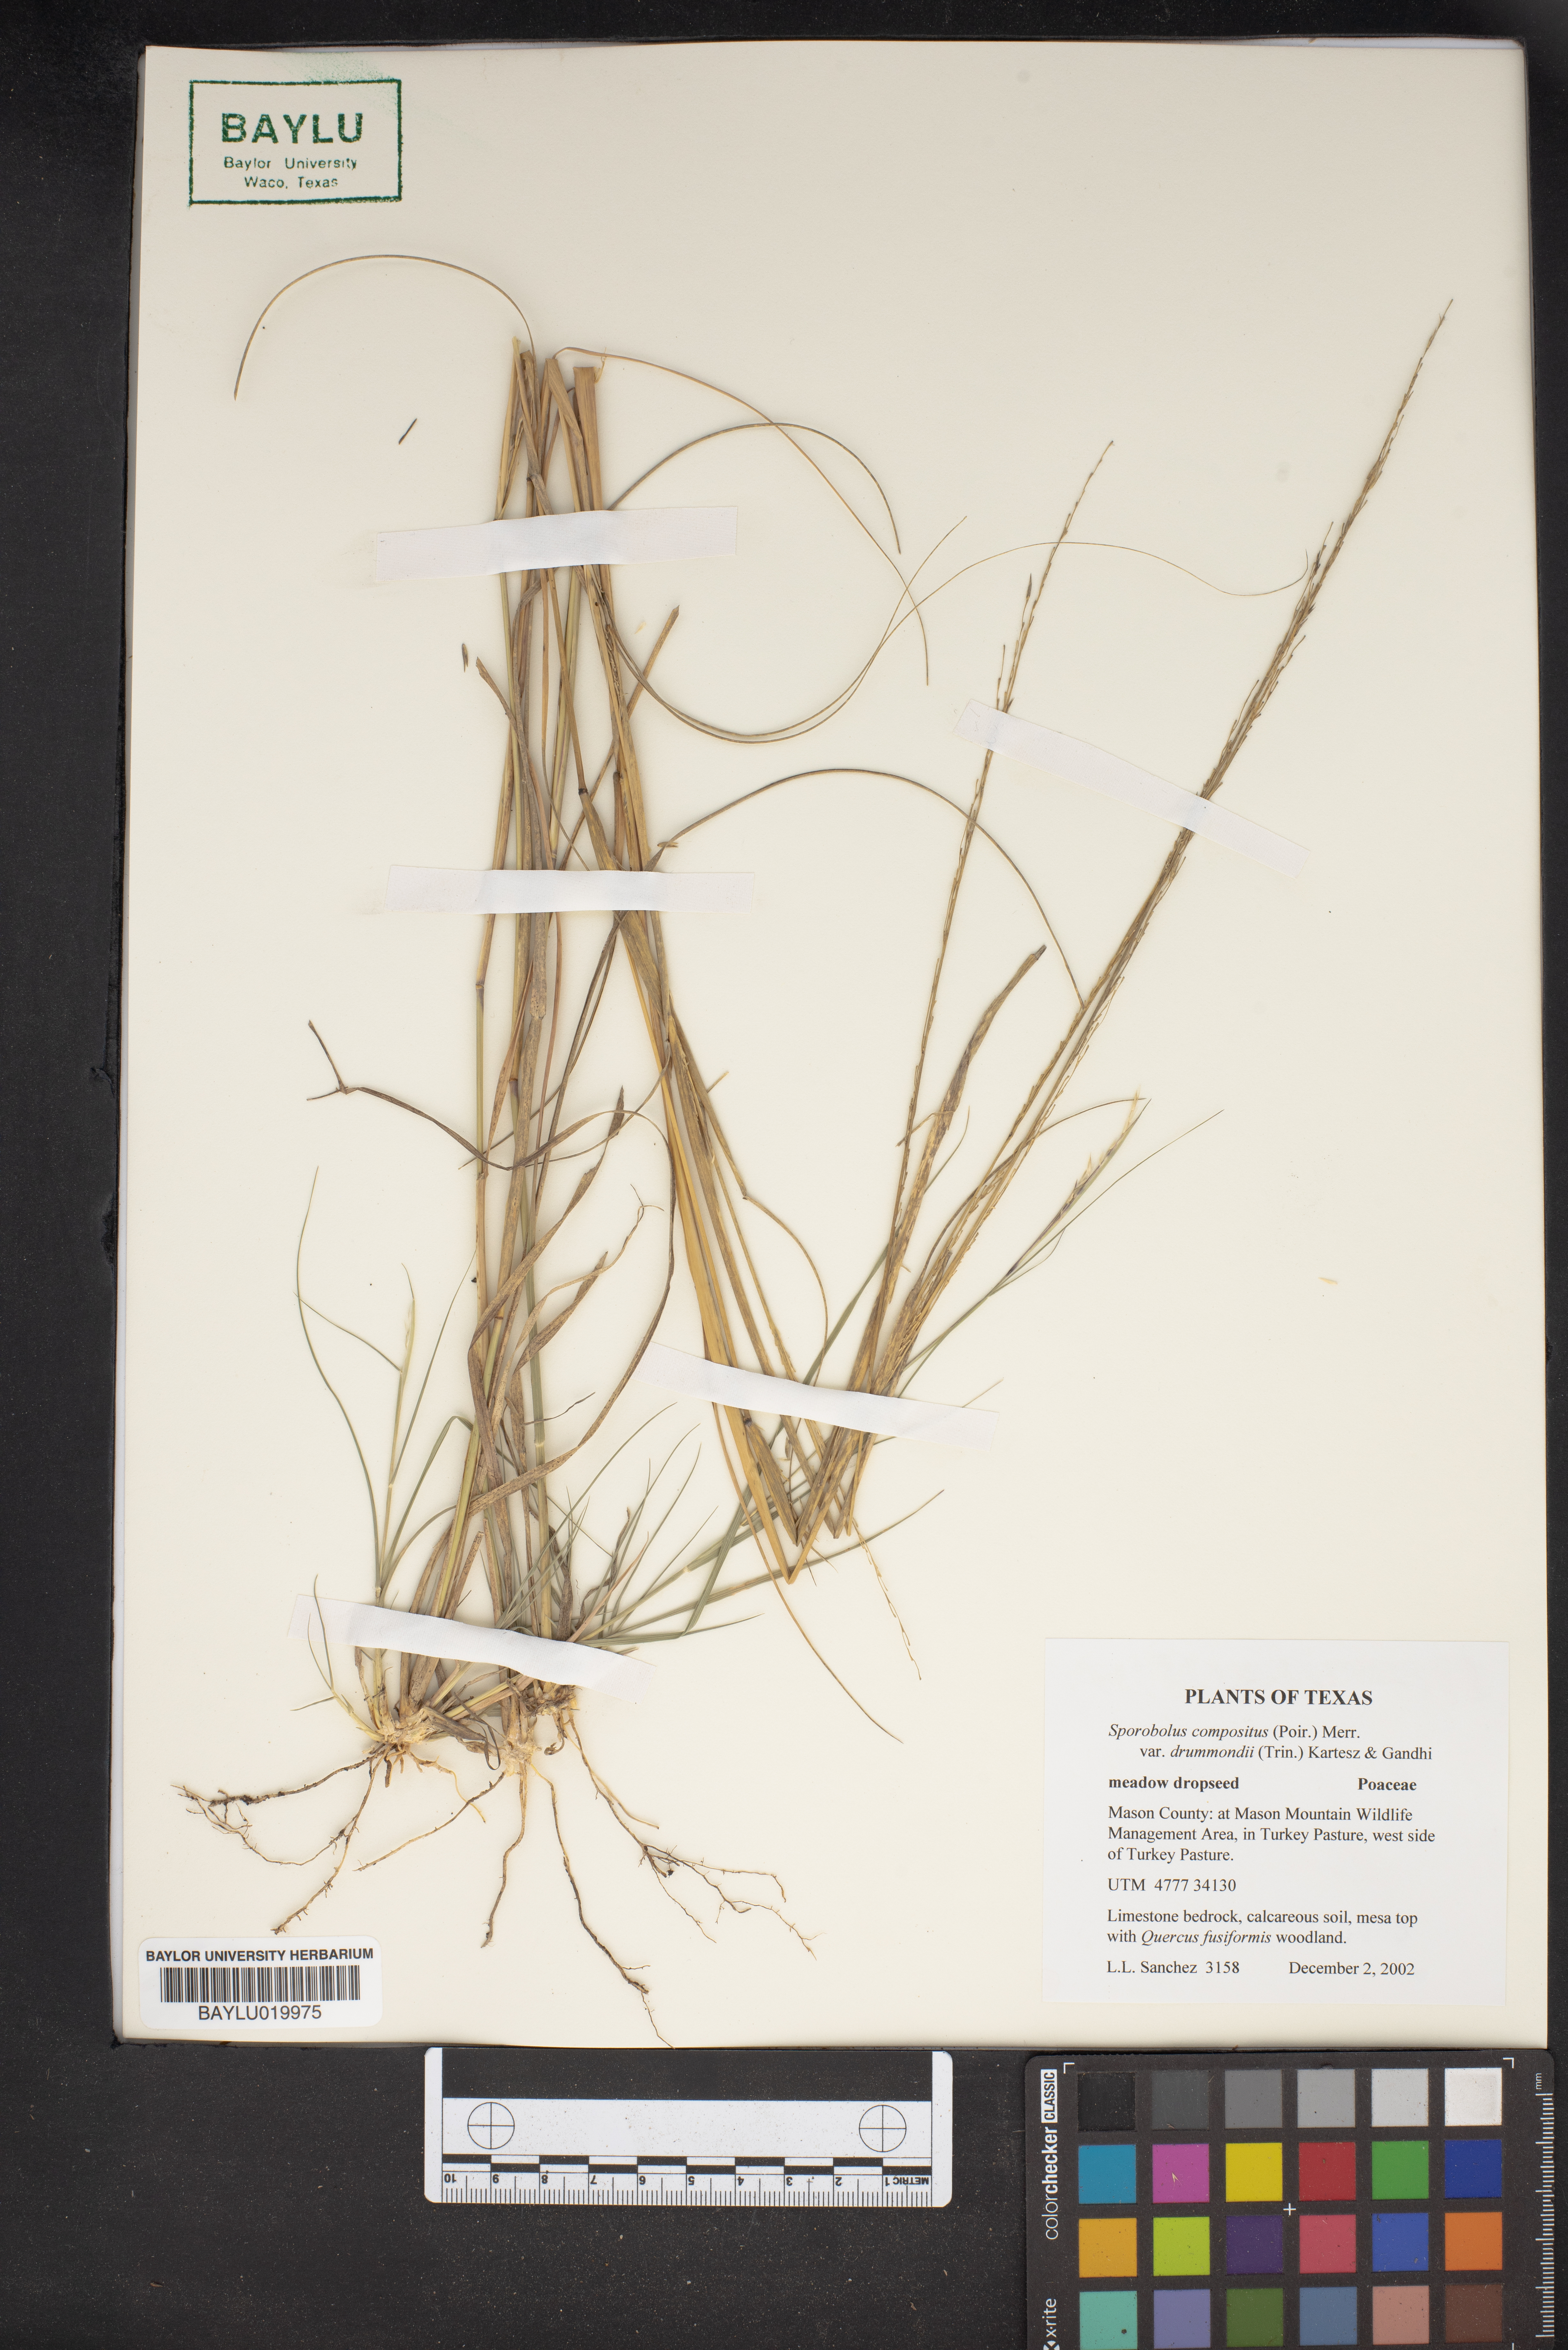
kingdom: Plantae
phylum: Tracheophyta
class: Liliopsida
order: Poales
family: Poaceae
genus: Sporobolus
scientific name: Sporobolus compositus
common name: Rough dropseed
